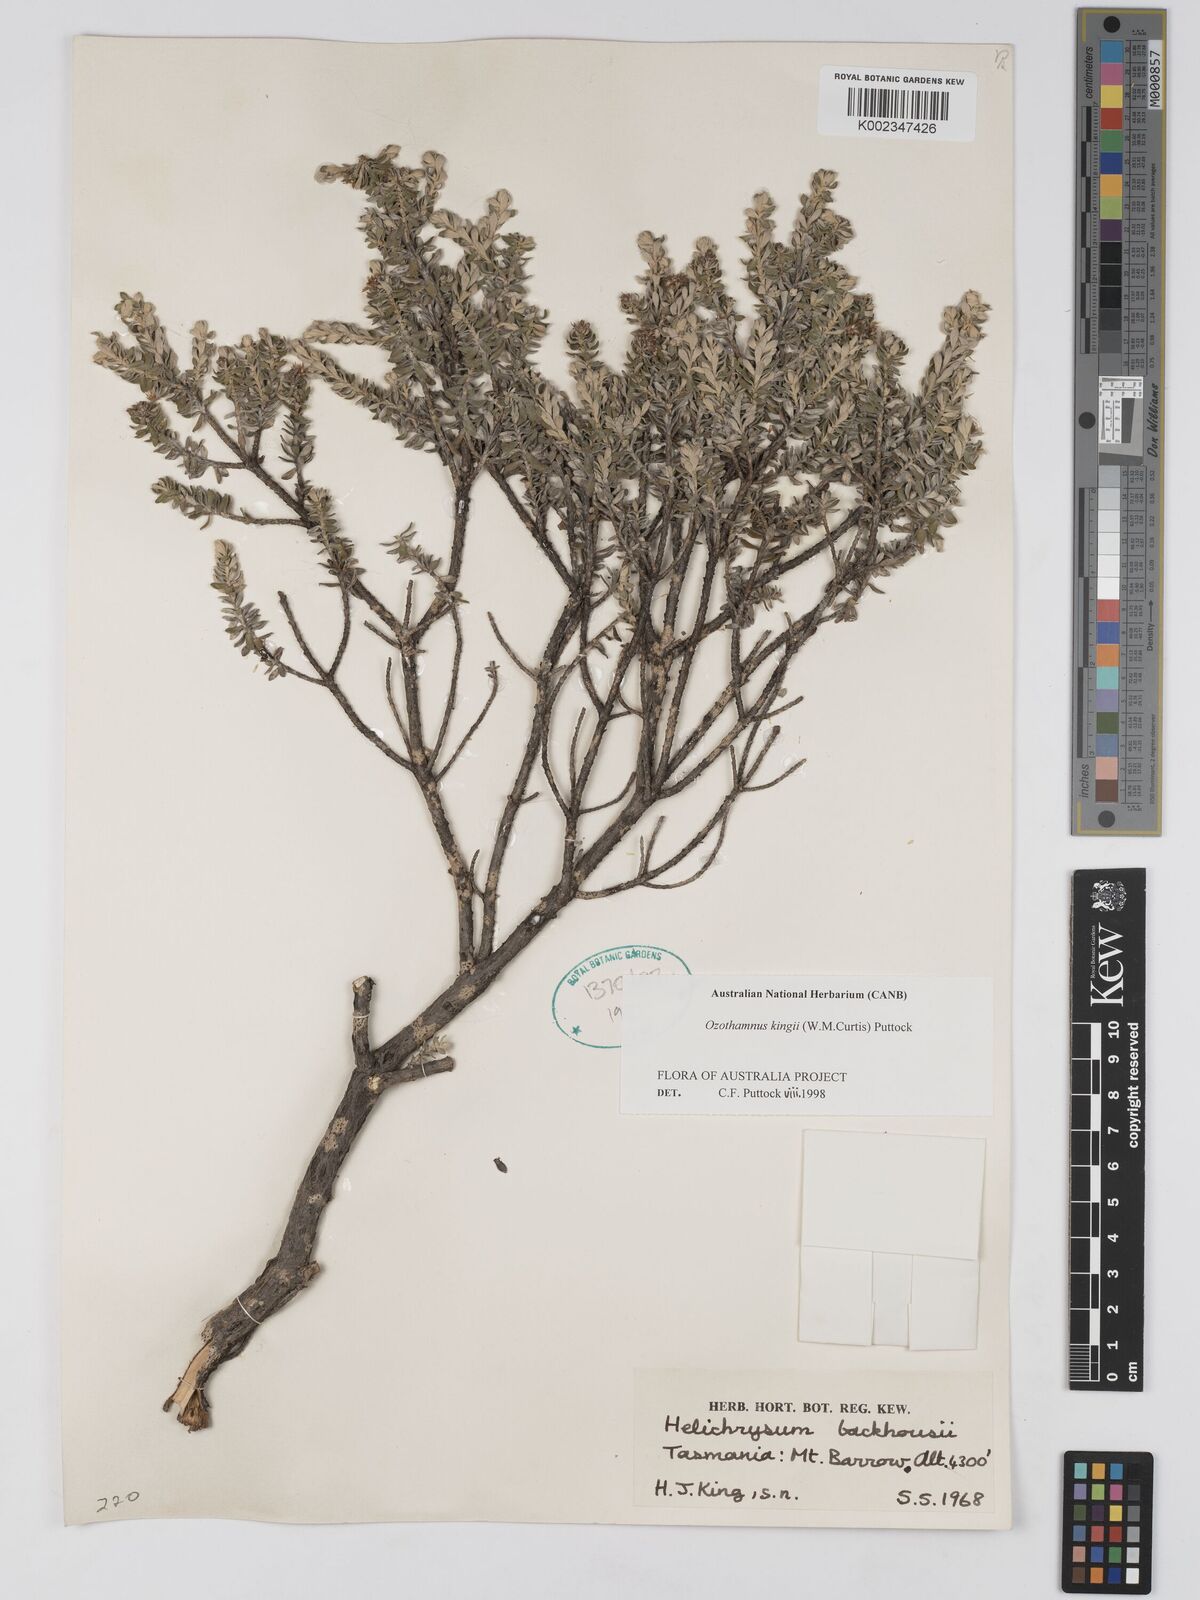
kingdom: Plantae
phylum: Tracheophyta
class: Magnoliopsida
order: Asterales
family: Asteraceae
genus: Ozothamnus
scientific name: Ozothamnus
